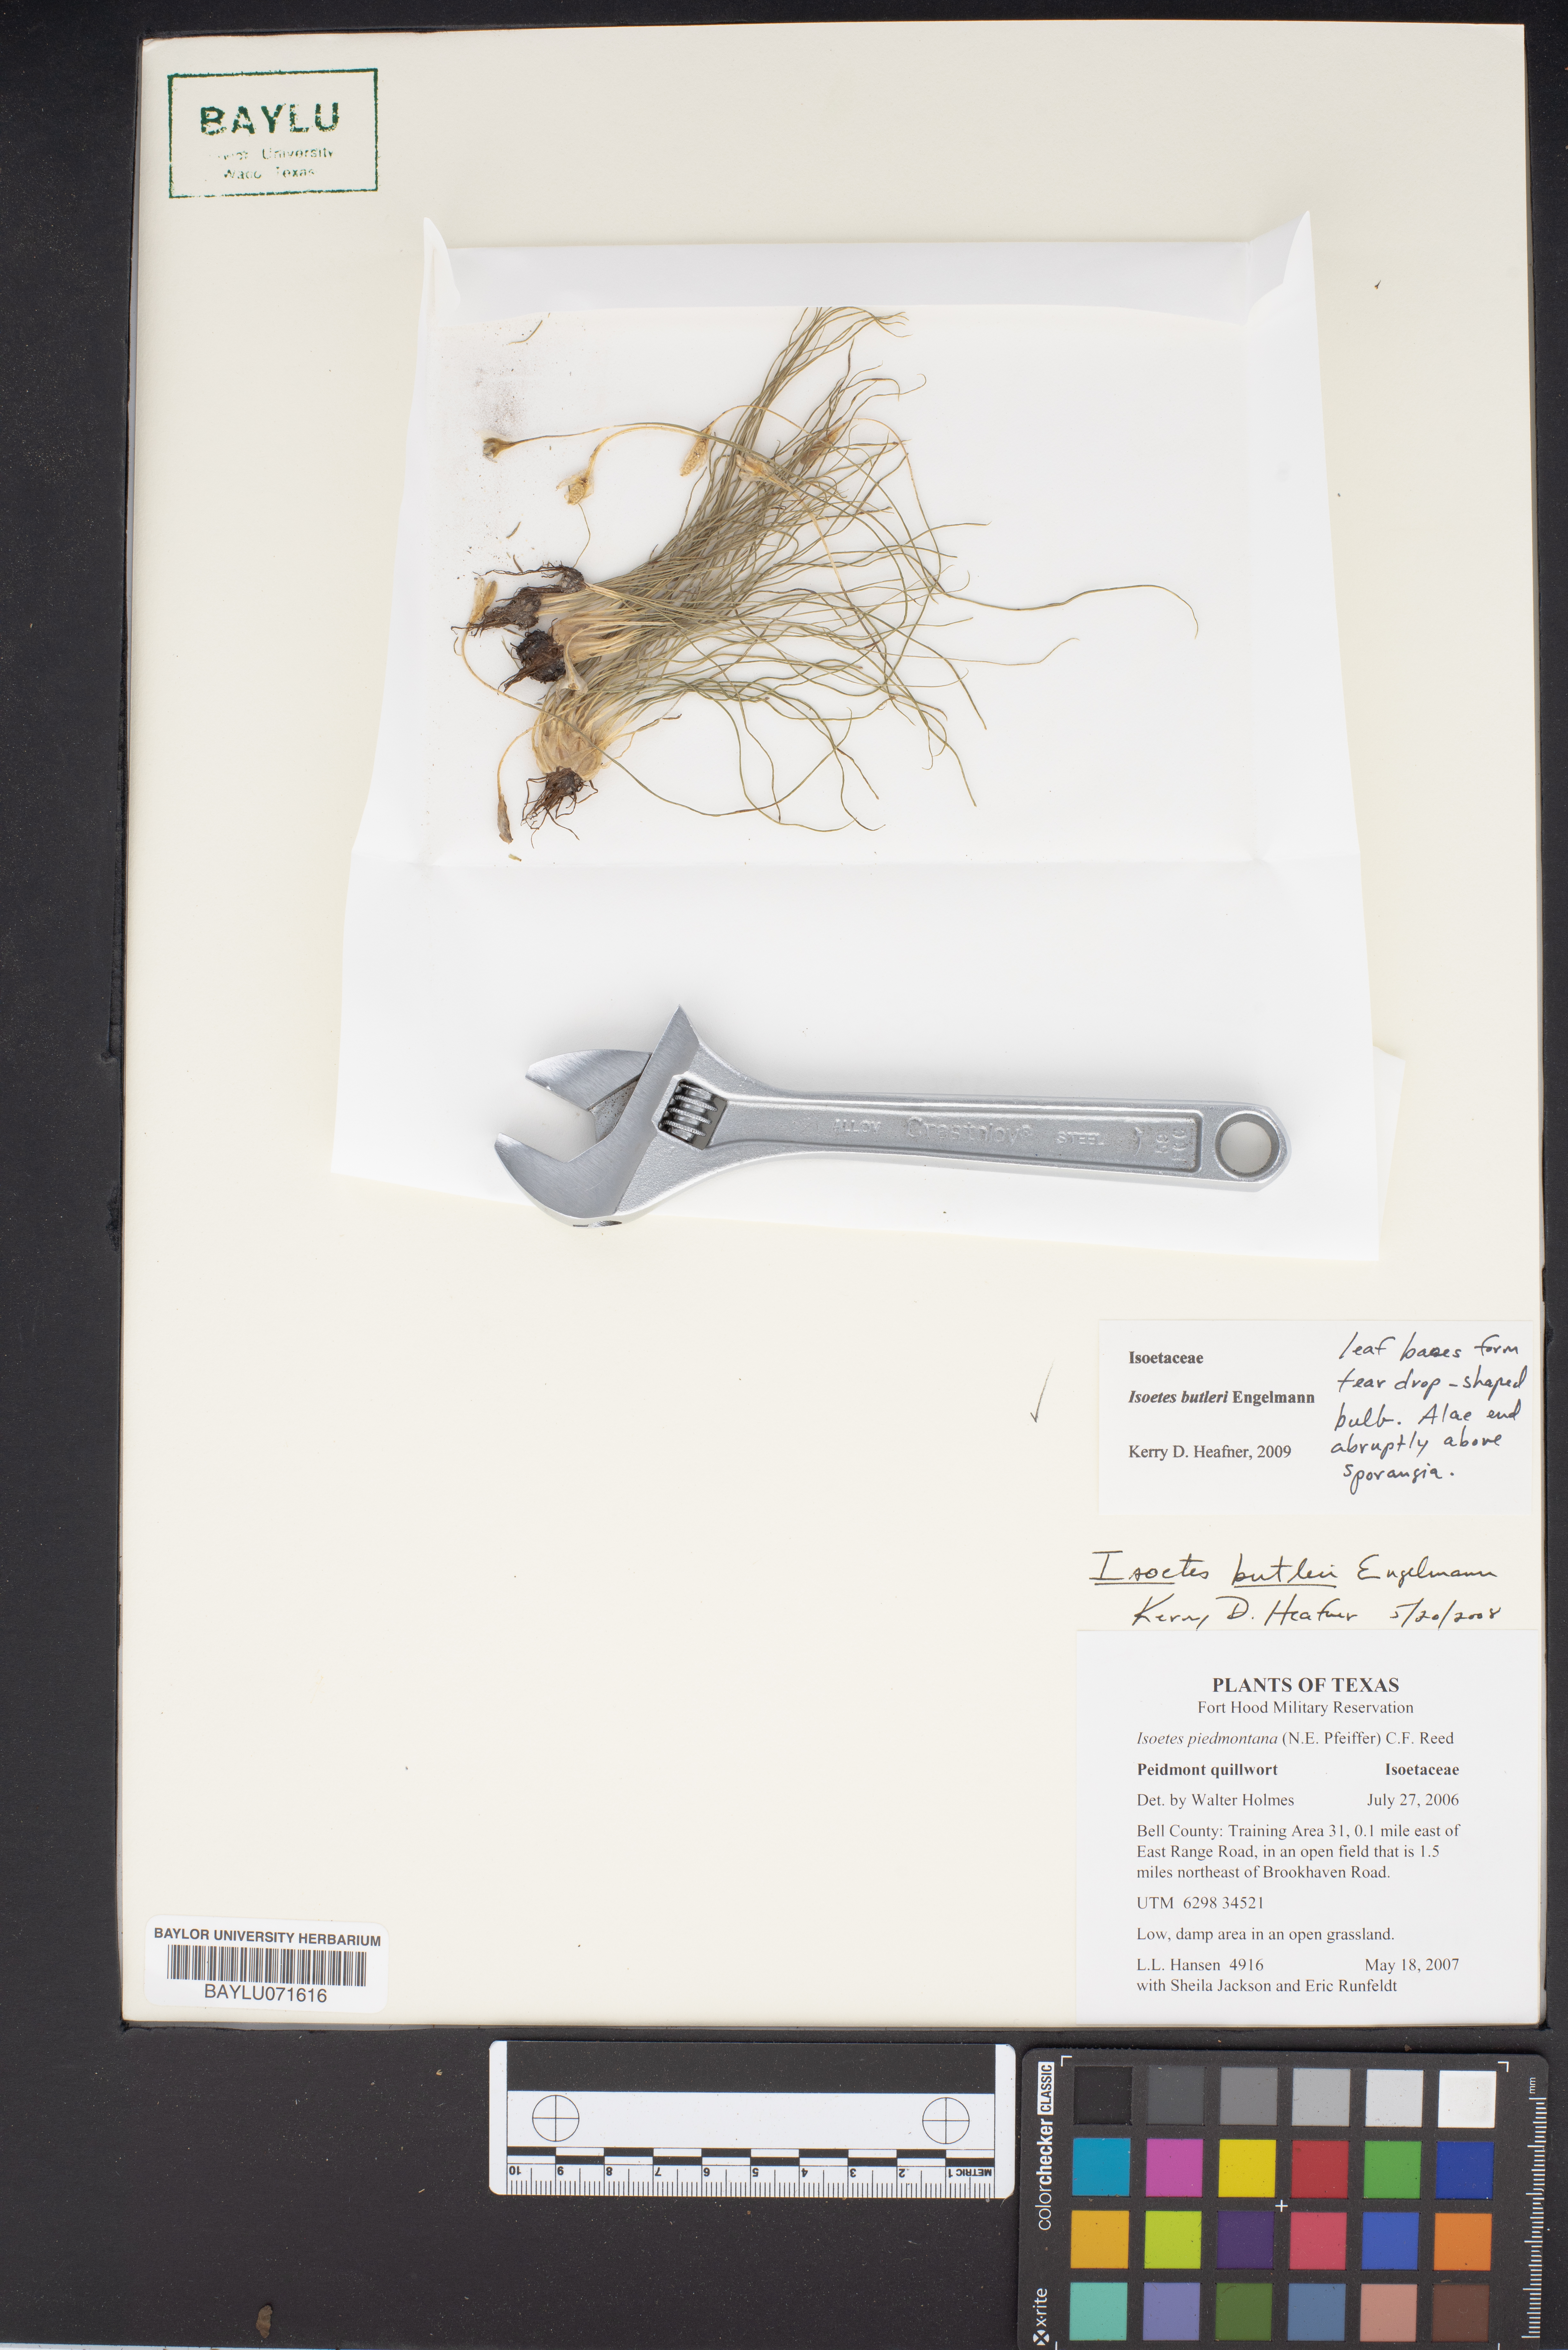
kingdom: Plantae
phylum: Tracheophyta
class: Lycopodiopsida
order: Isoetales
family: Isoetaceae
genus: Isoetes
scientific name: Isoetes butleri
